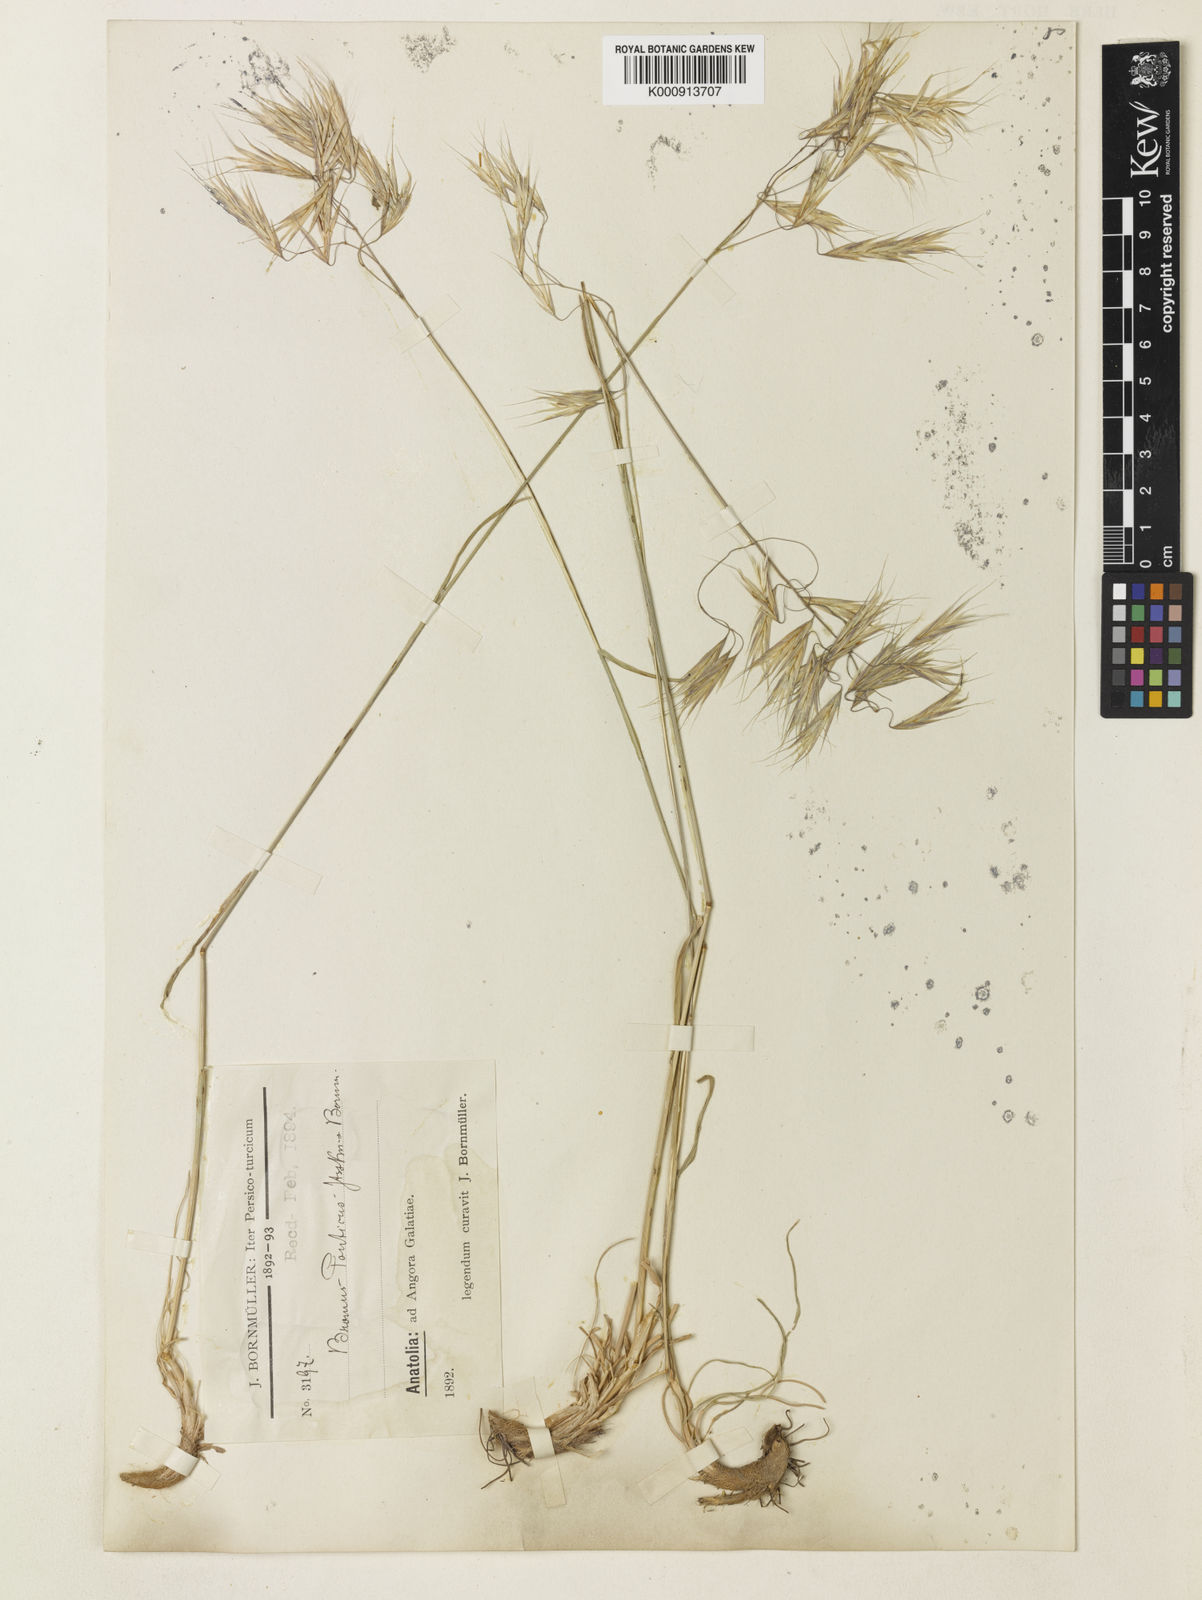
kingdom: Plantae
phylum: Tracheophyta
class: Liliopsida
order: Poales
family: Poaceae
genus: Bromus
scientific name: Bromus sclerophyllus
